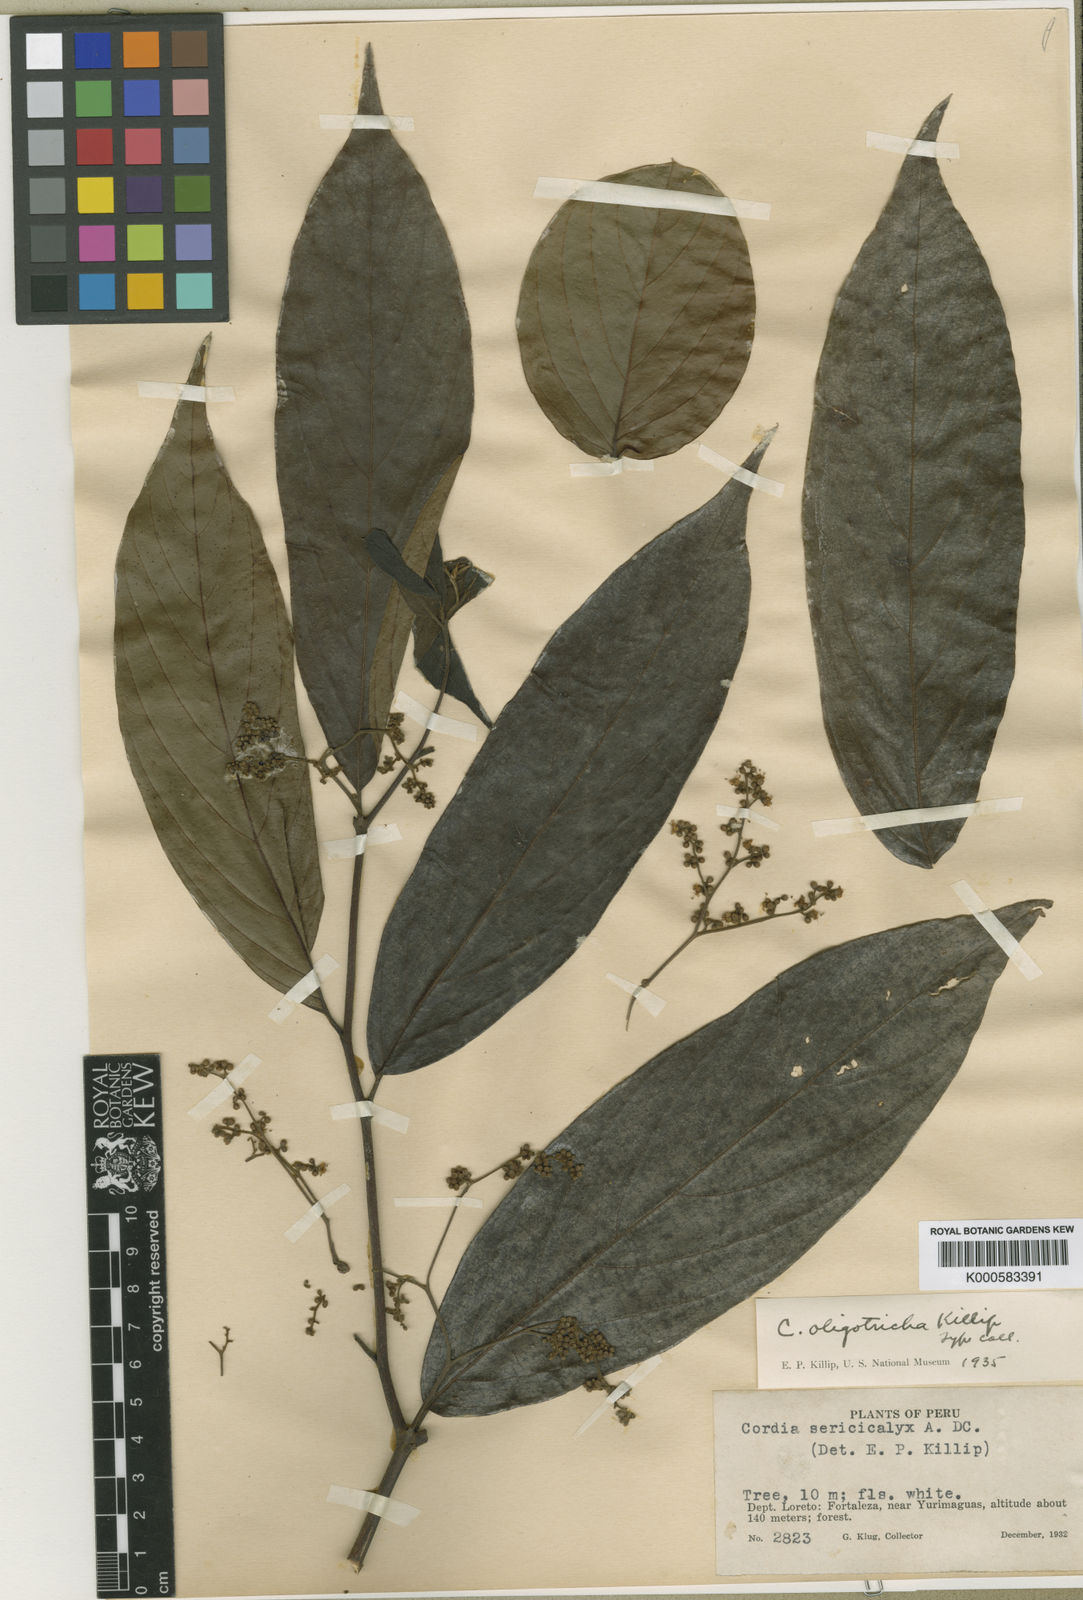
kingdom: Plantae
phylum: Tracheophyta
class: Magnoliopsida
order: Boraginales
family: Cordiaceae
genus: Cordia
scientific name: Cordia
